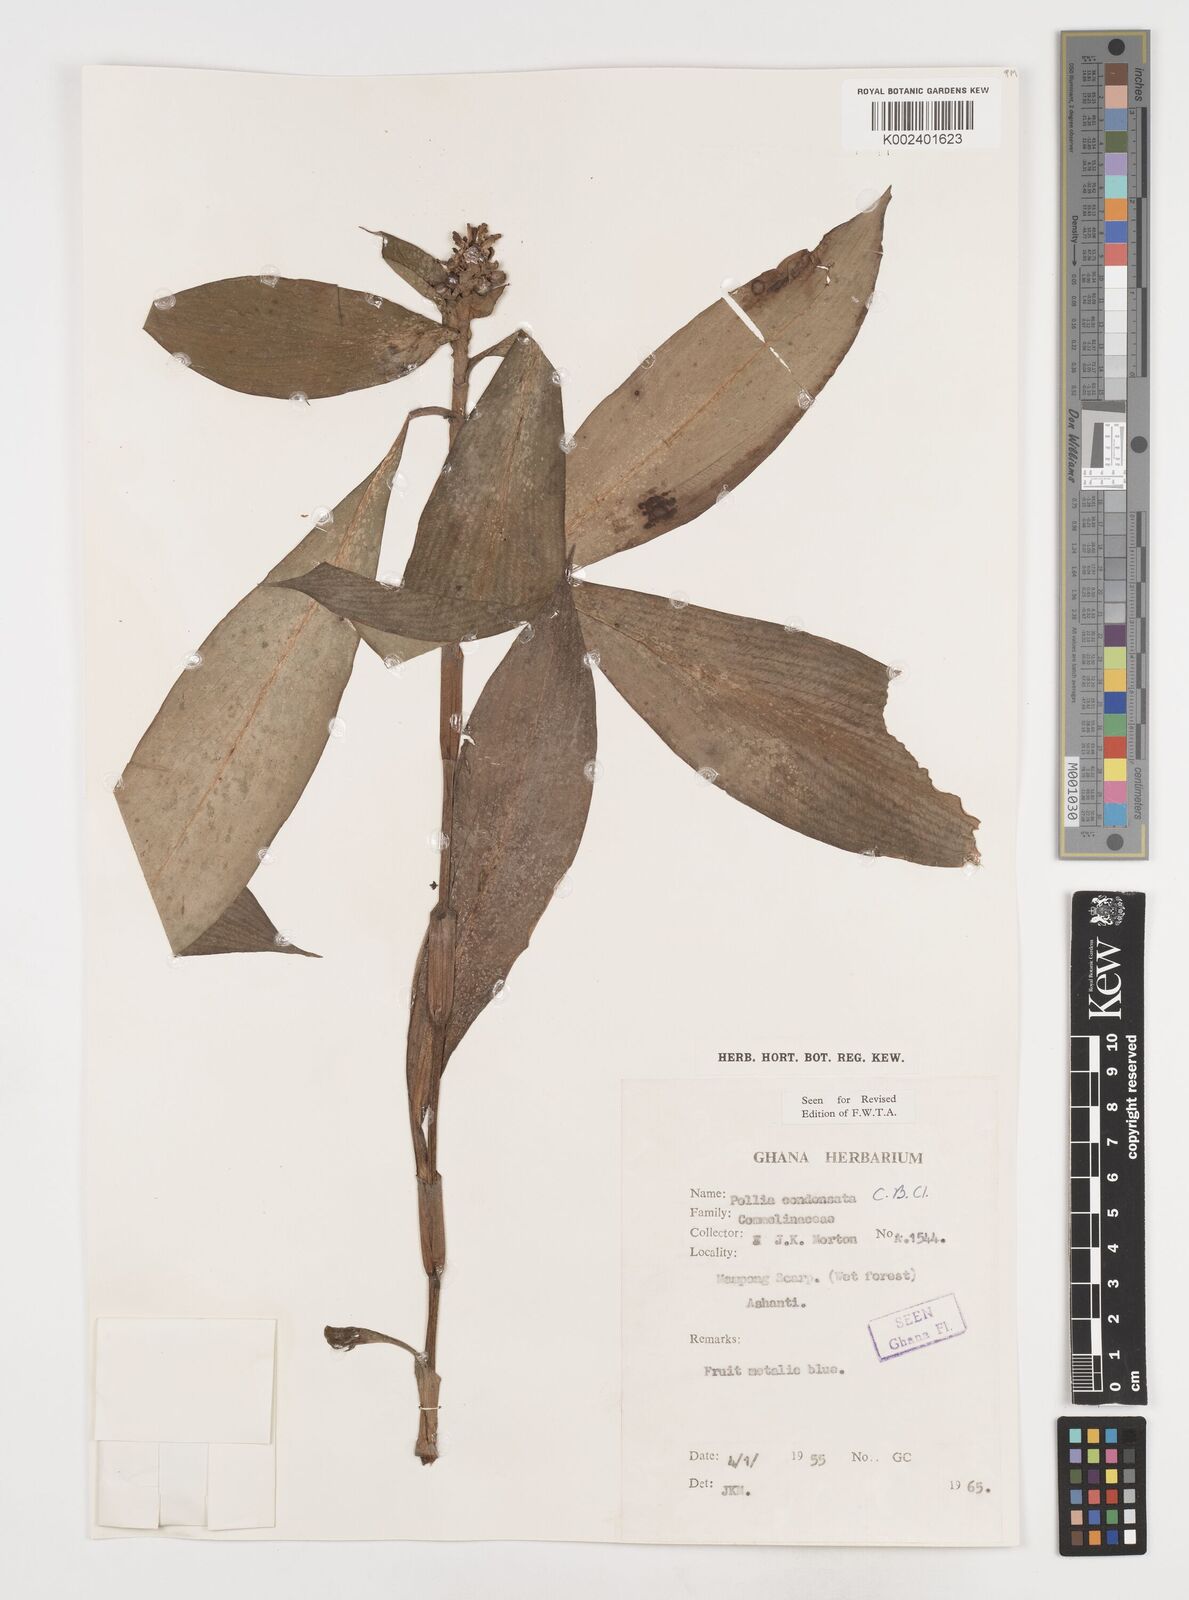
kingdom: Plantae
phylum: Tracheophyta
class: Liliopsida
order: Commelinales
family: Commelinaceae
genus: Pollia
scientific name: Pollia condensata
